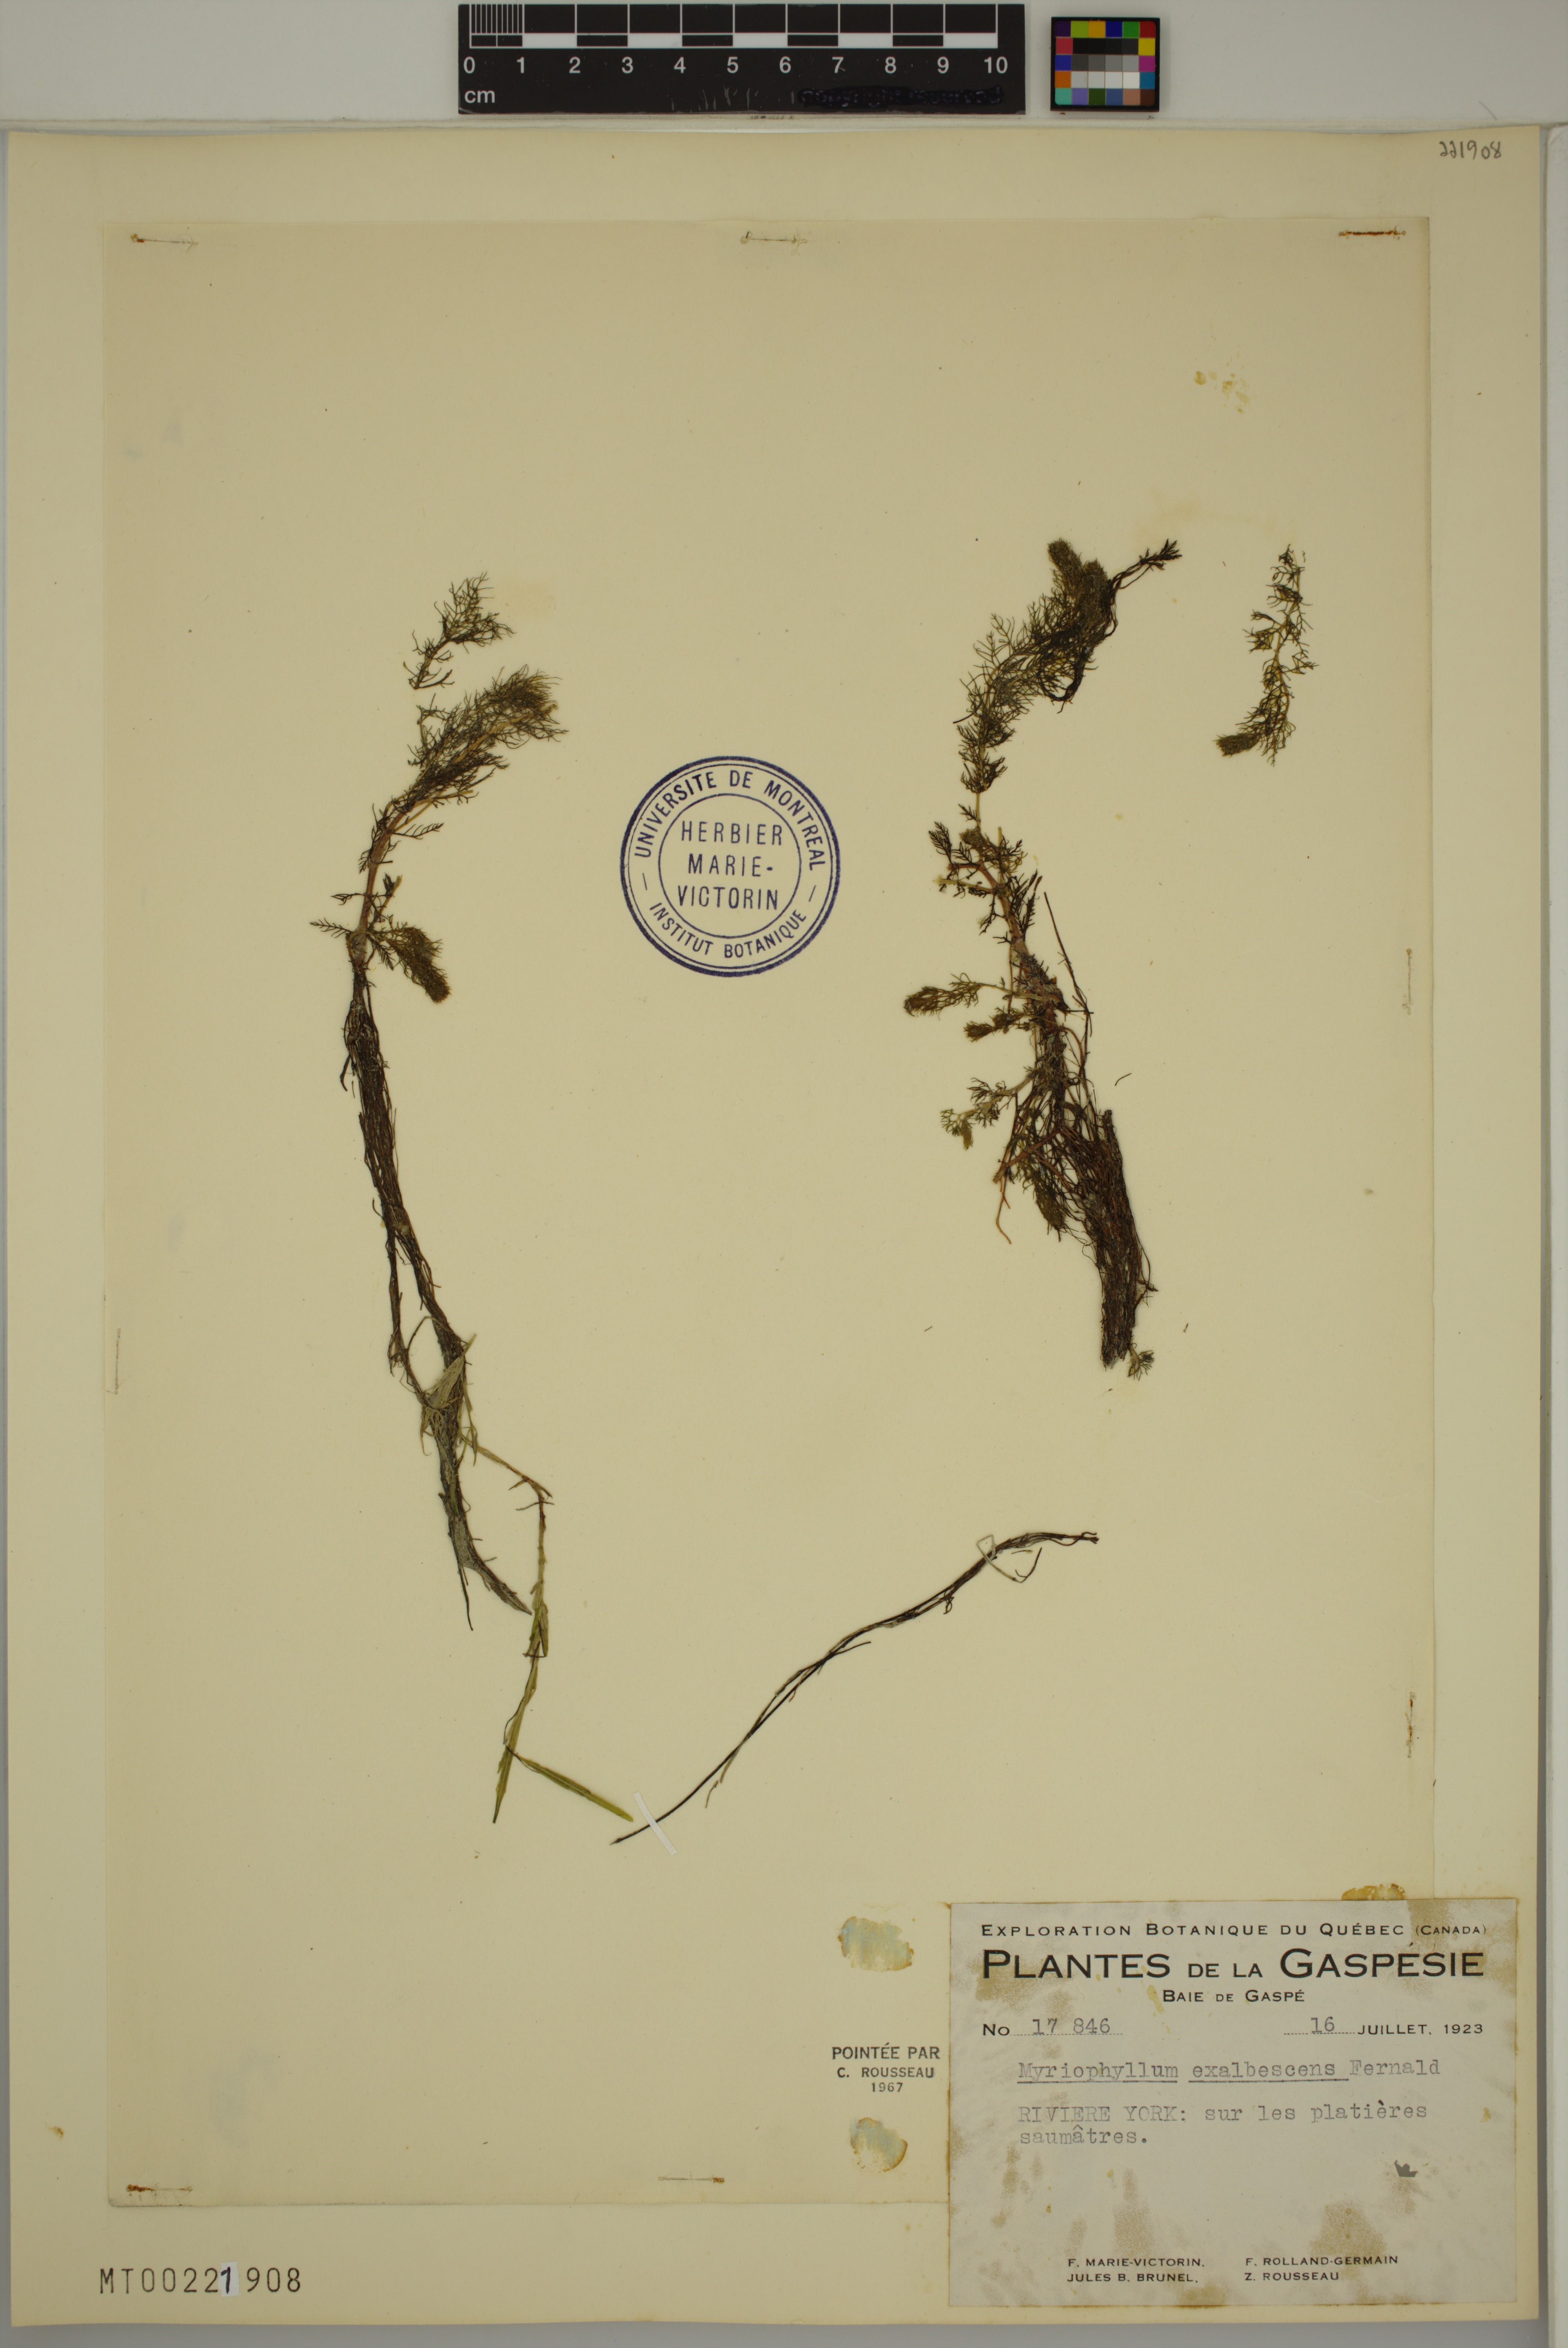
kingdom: Plantae
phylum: Tracheophyta
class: Magnoliopsida
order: Saxifragales
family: Haloragaceae
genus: Myriophyllum
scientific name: Myriophyllum sibiricum
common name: Siberian water-milfoil
